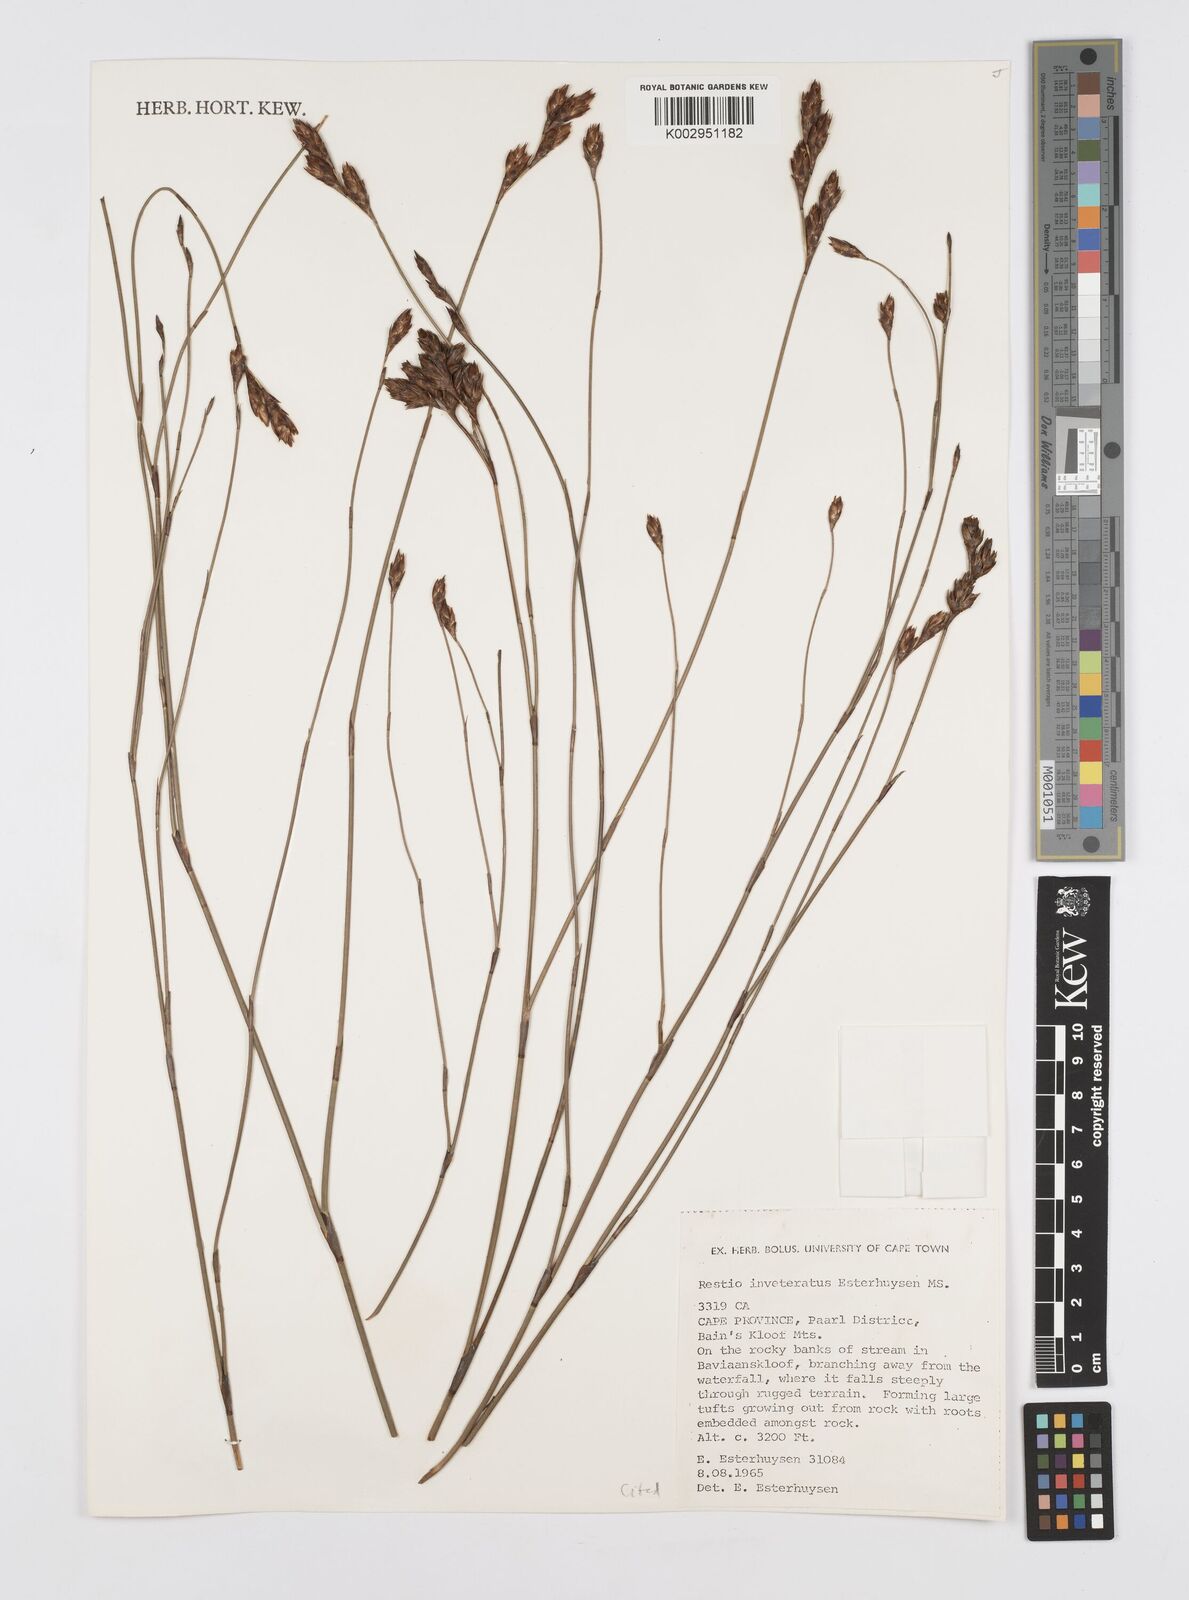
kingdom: Plantae
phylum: Tracheophyta
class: Liliopsida
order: Poales
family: Restionaceae
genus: Restio
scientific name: Restio inveteratus
